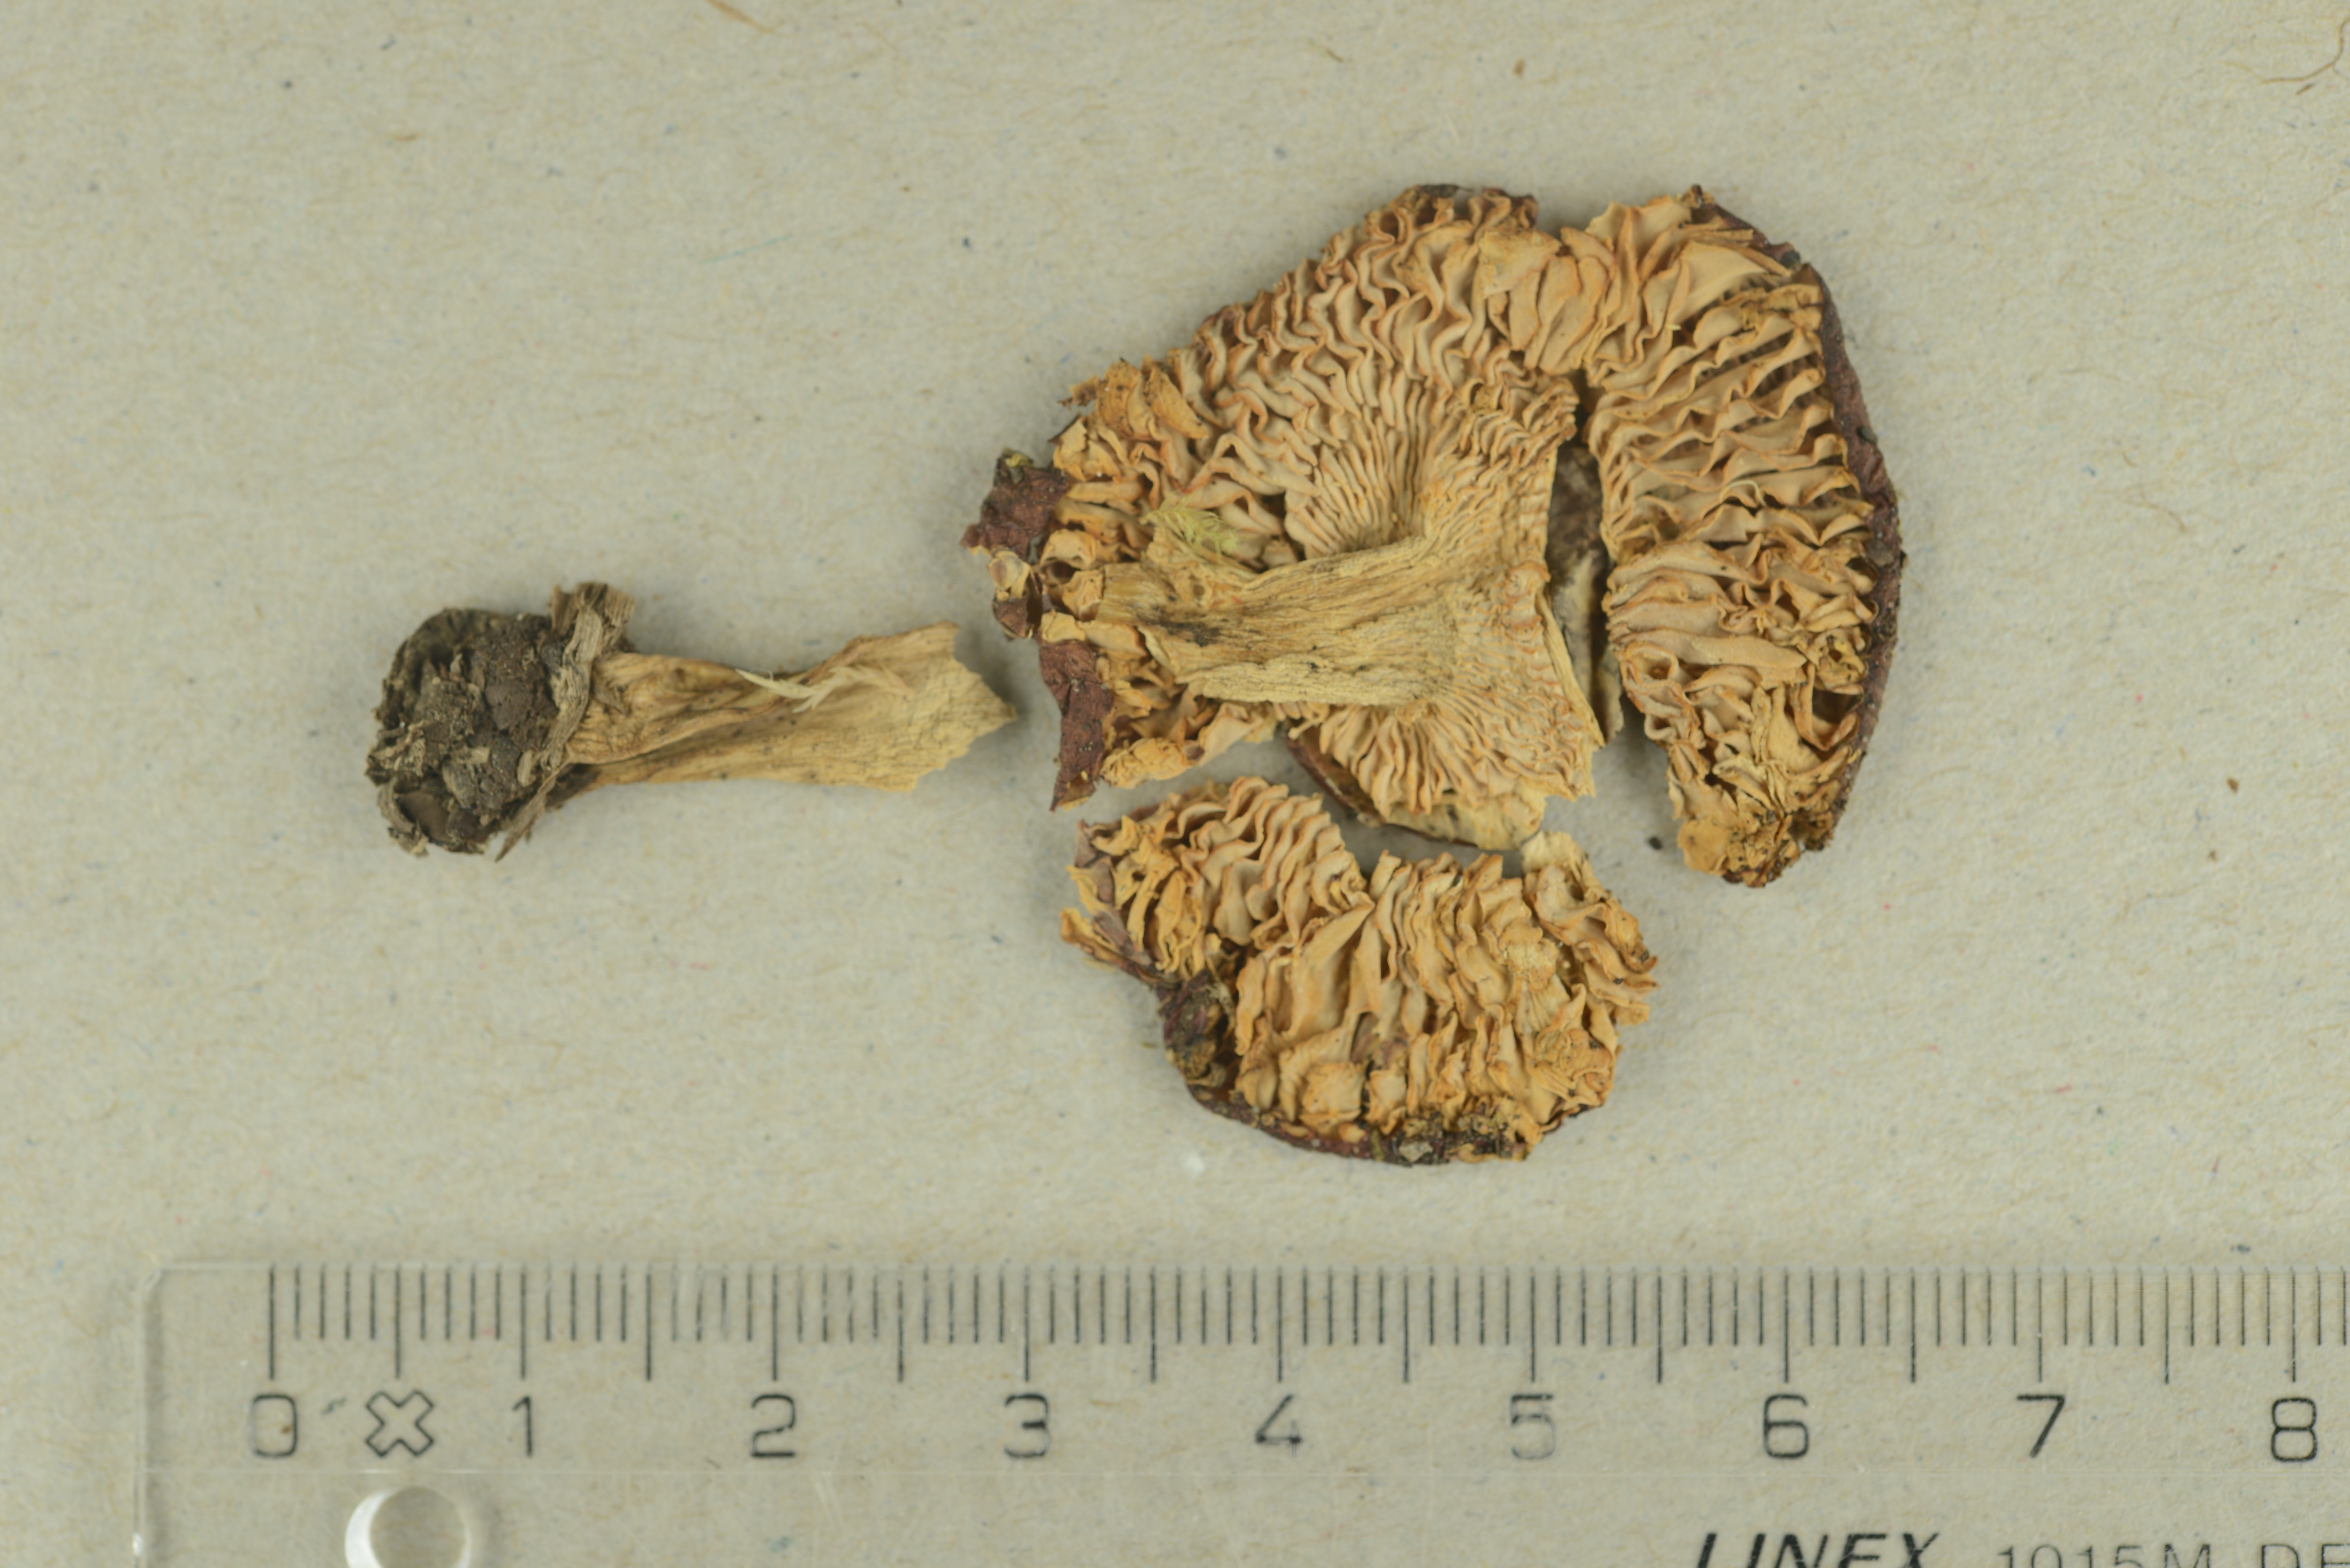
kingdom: Fungi
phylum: Basidiomycota
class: Agaricomycetes
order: Russulales
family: Russulaceae
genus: Russula
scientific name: Russula sphagnophila
